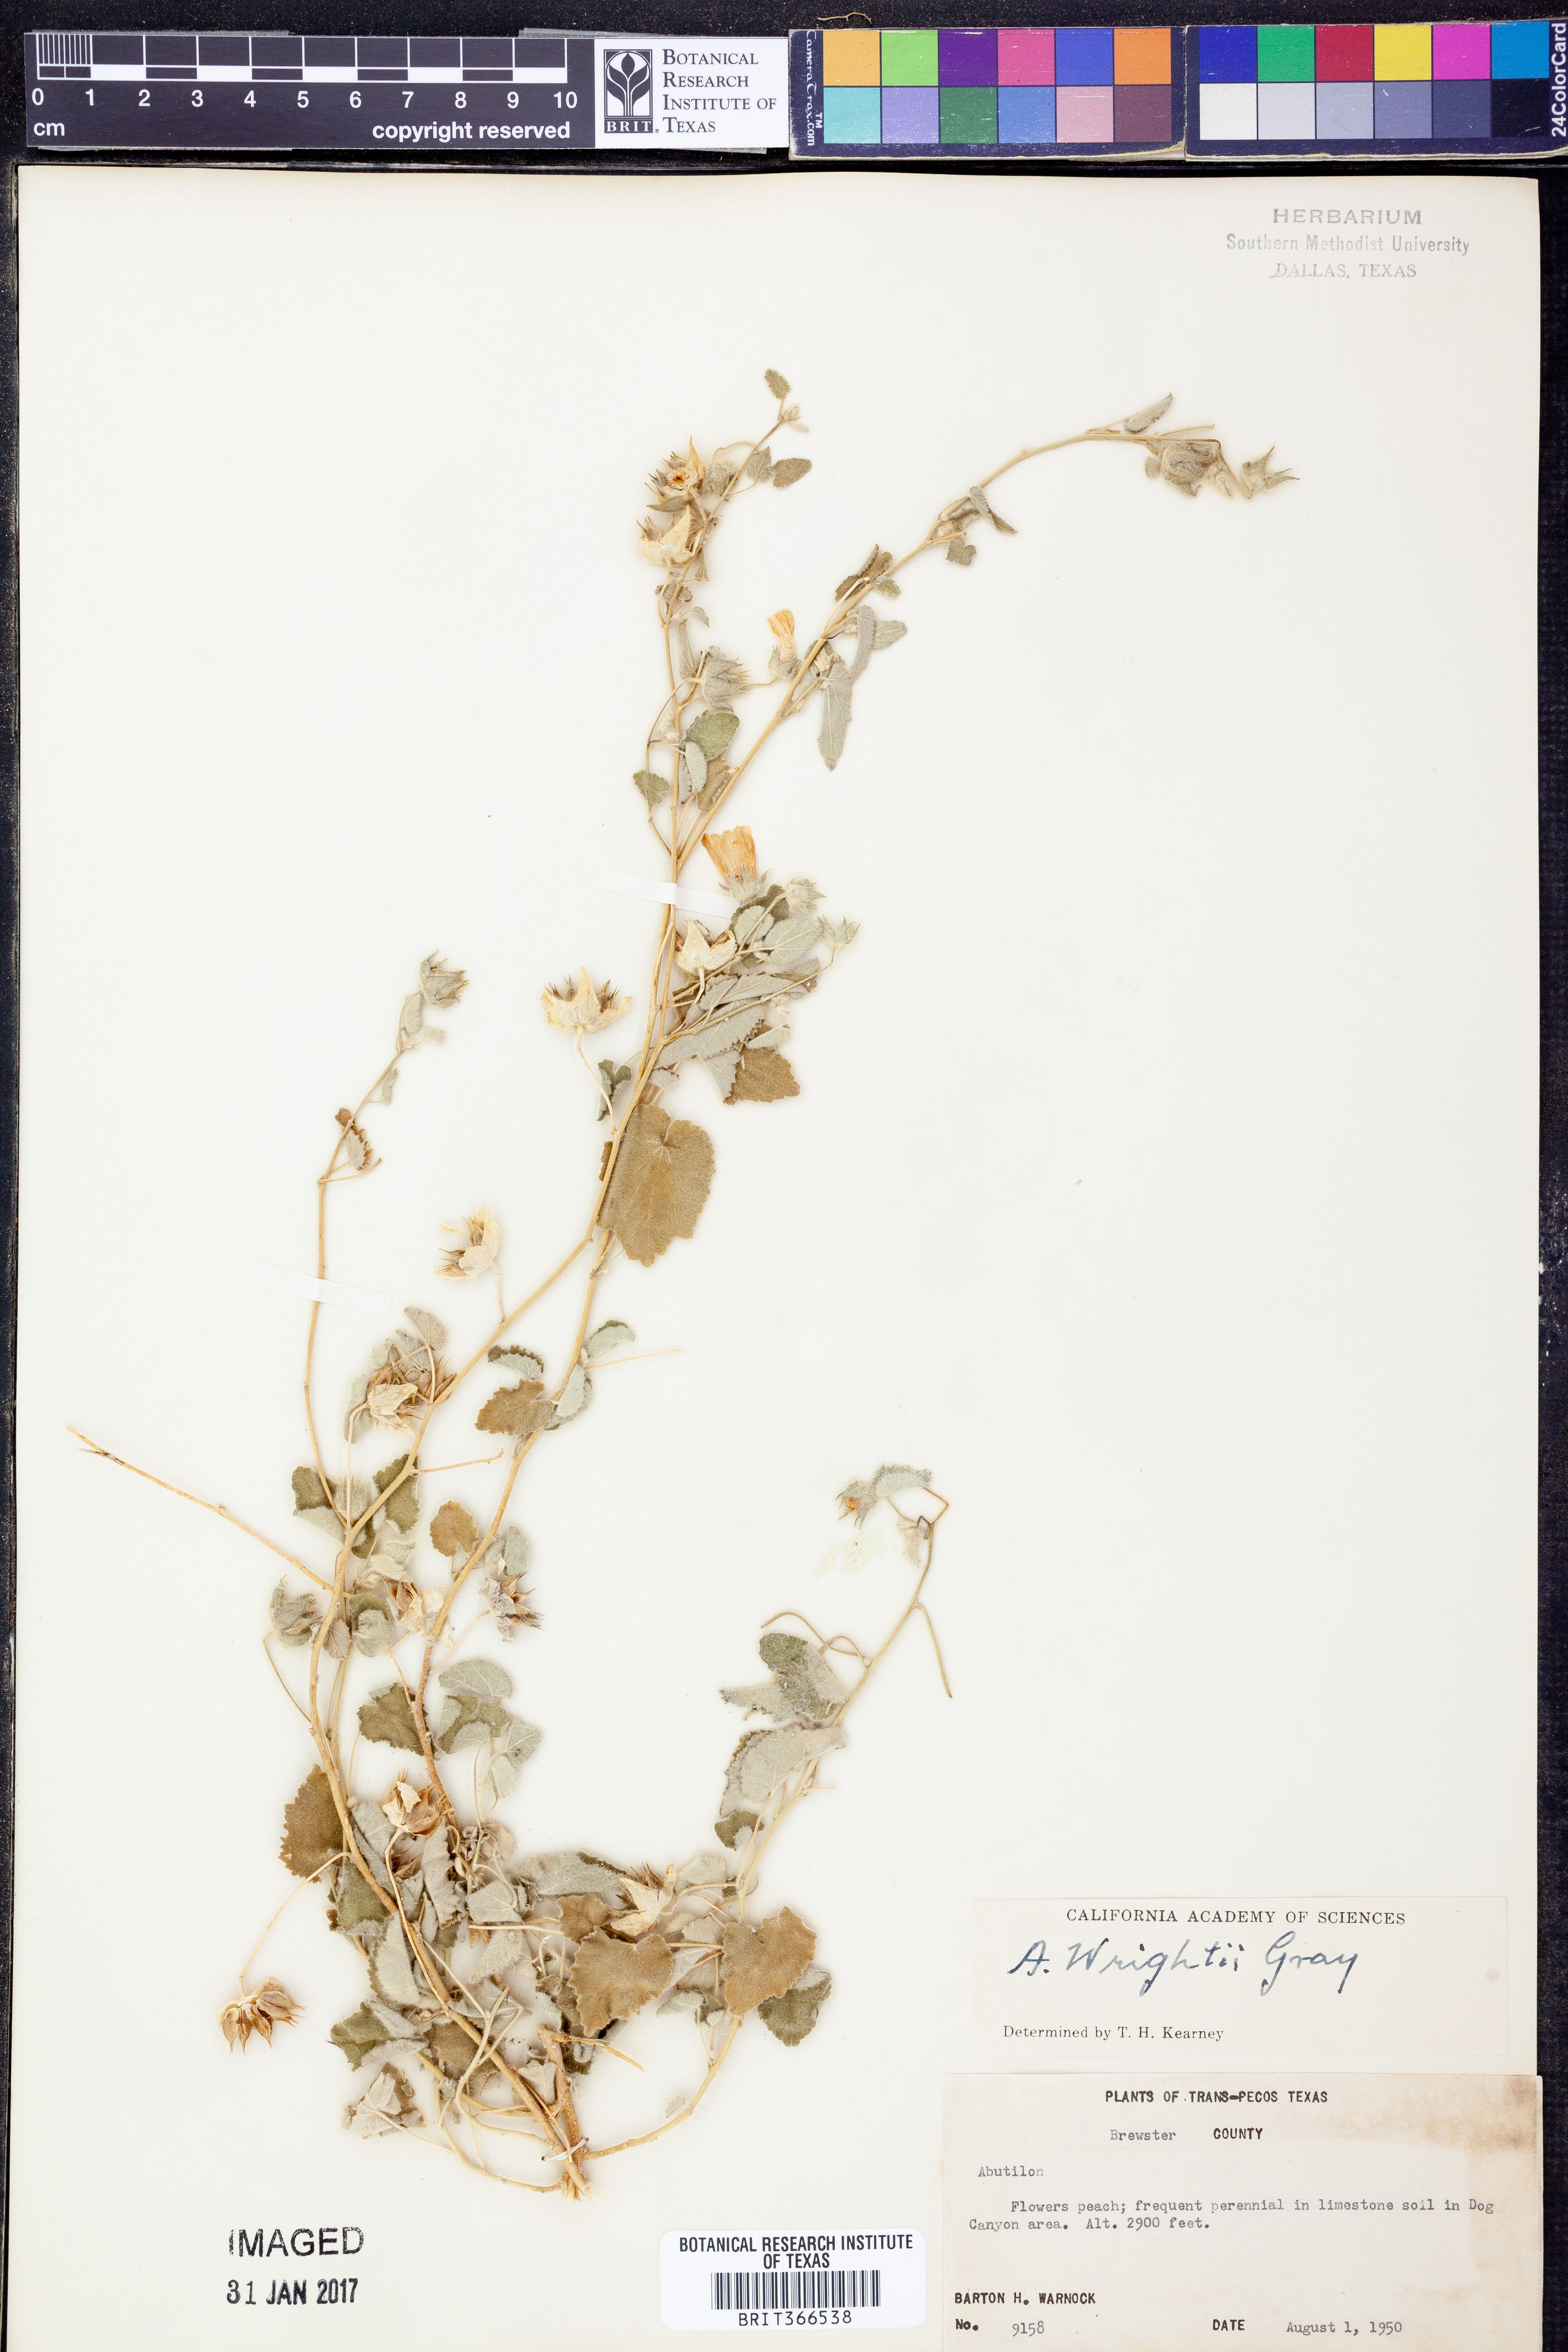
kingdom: Plantae
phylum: Tracheophyta
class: Magnoliopsida
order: Malvales
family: Malvaceae
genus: Abutilon
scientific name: Abutilon wrightii
